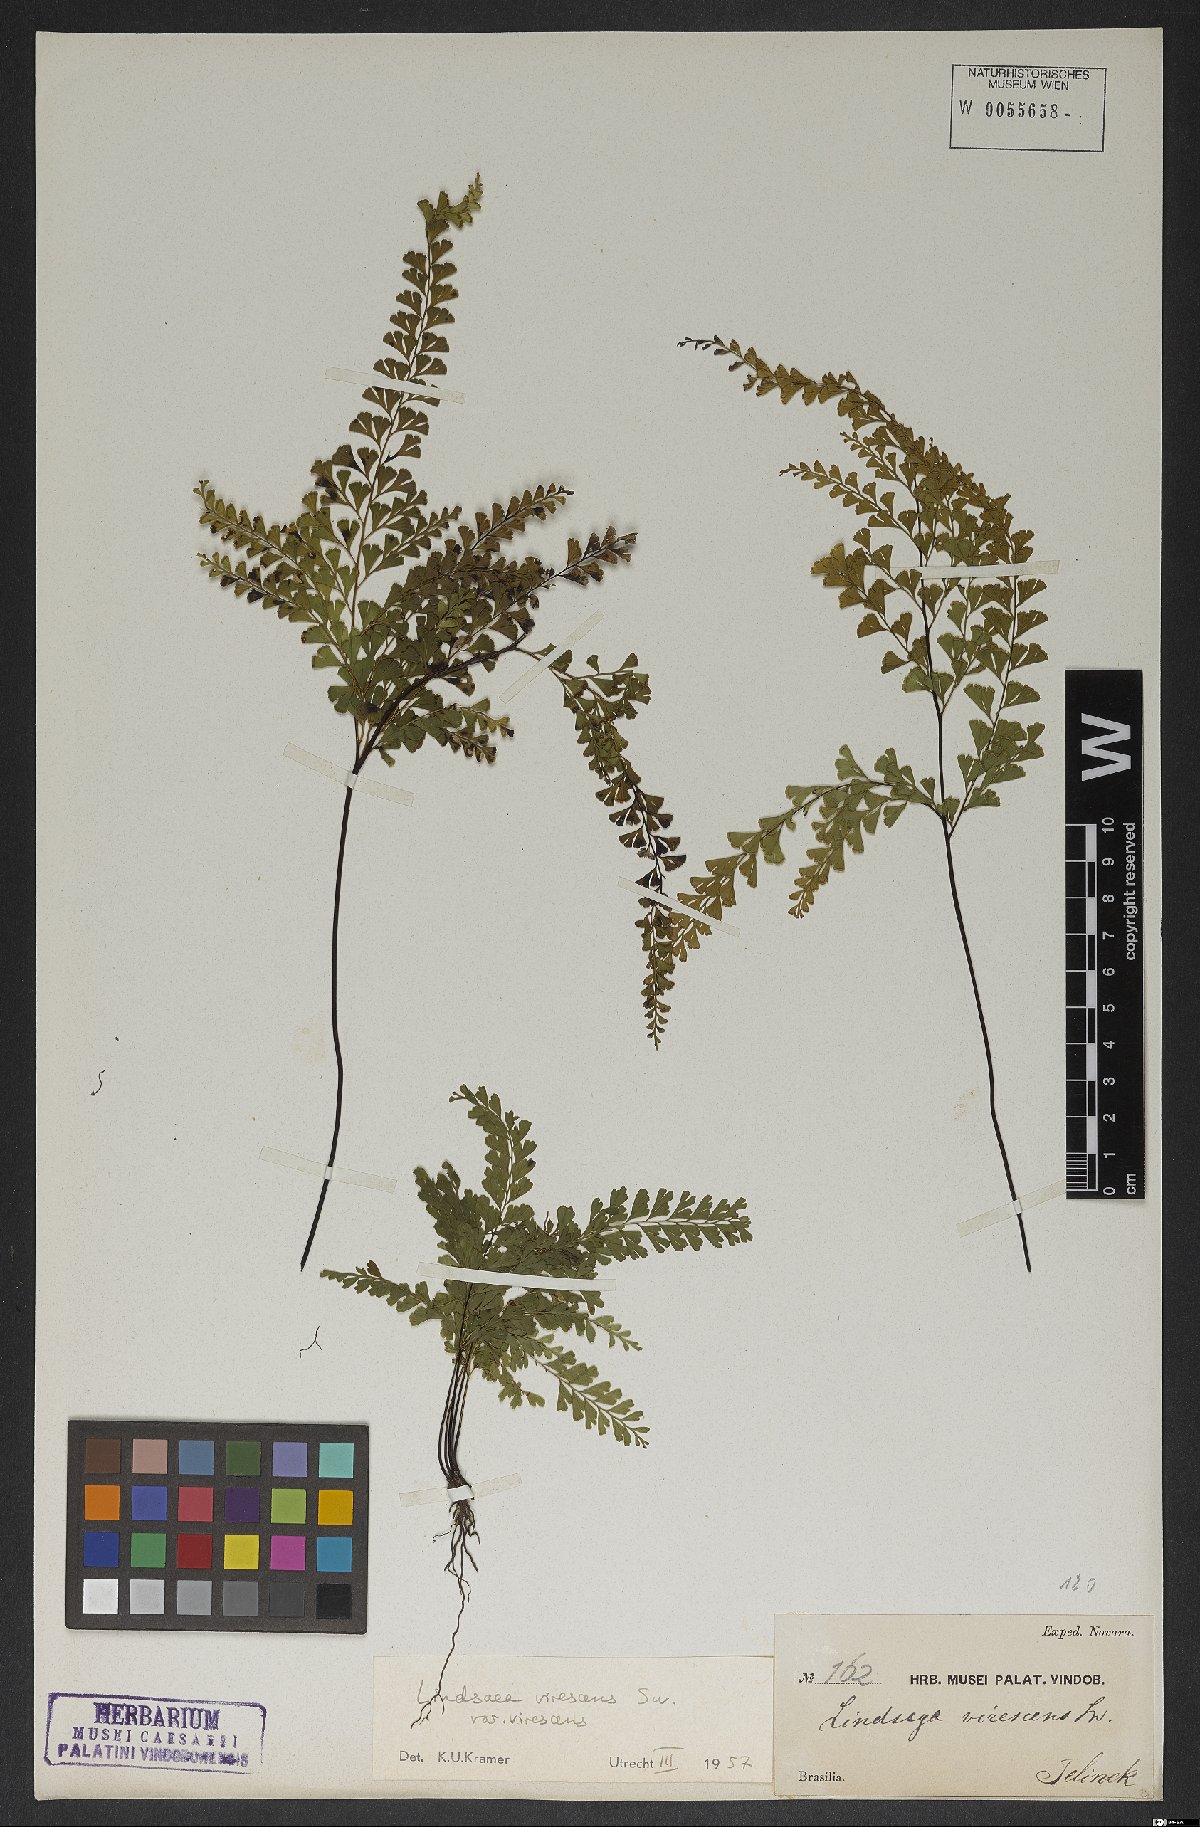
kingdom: Plantae
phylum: Tracheophyta
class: Polypodiopsida
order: Polypodiales
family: Lindsaeaceae
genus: Lindsaea
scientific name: Lindsaea virescens
